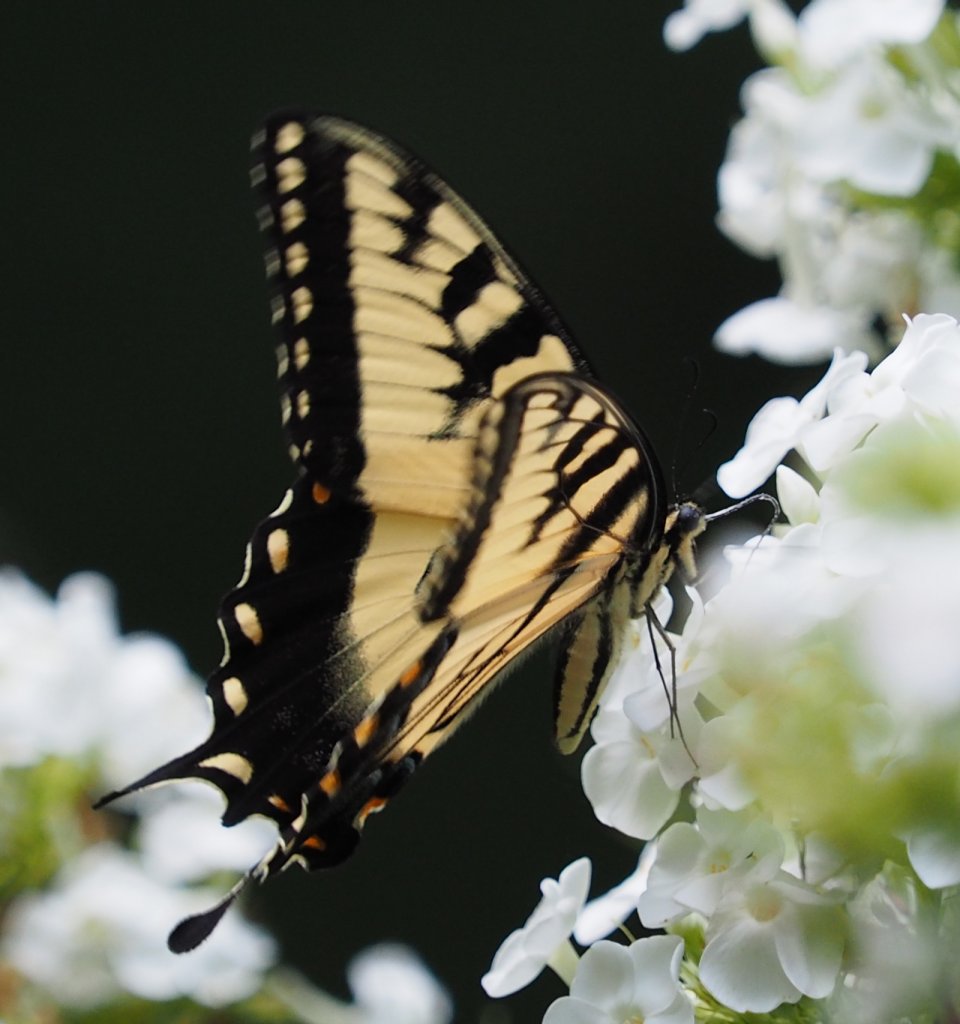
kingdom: Animalia
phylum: Arthropoda
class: Insecta
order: Lepidoptera
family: Papilionidae
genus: Pterourus
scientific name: Pterourus glaucus
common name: Eastern Tiger Swallowtail
